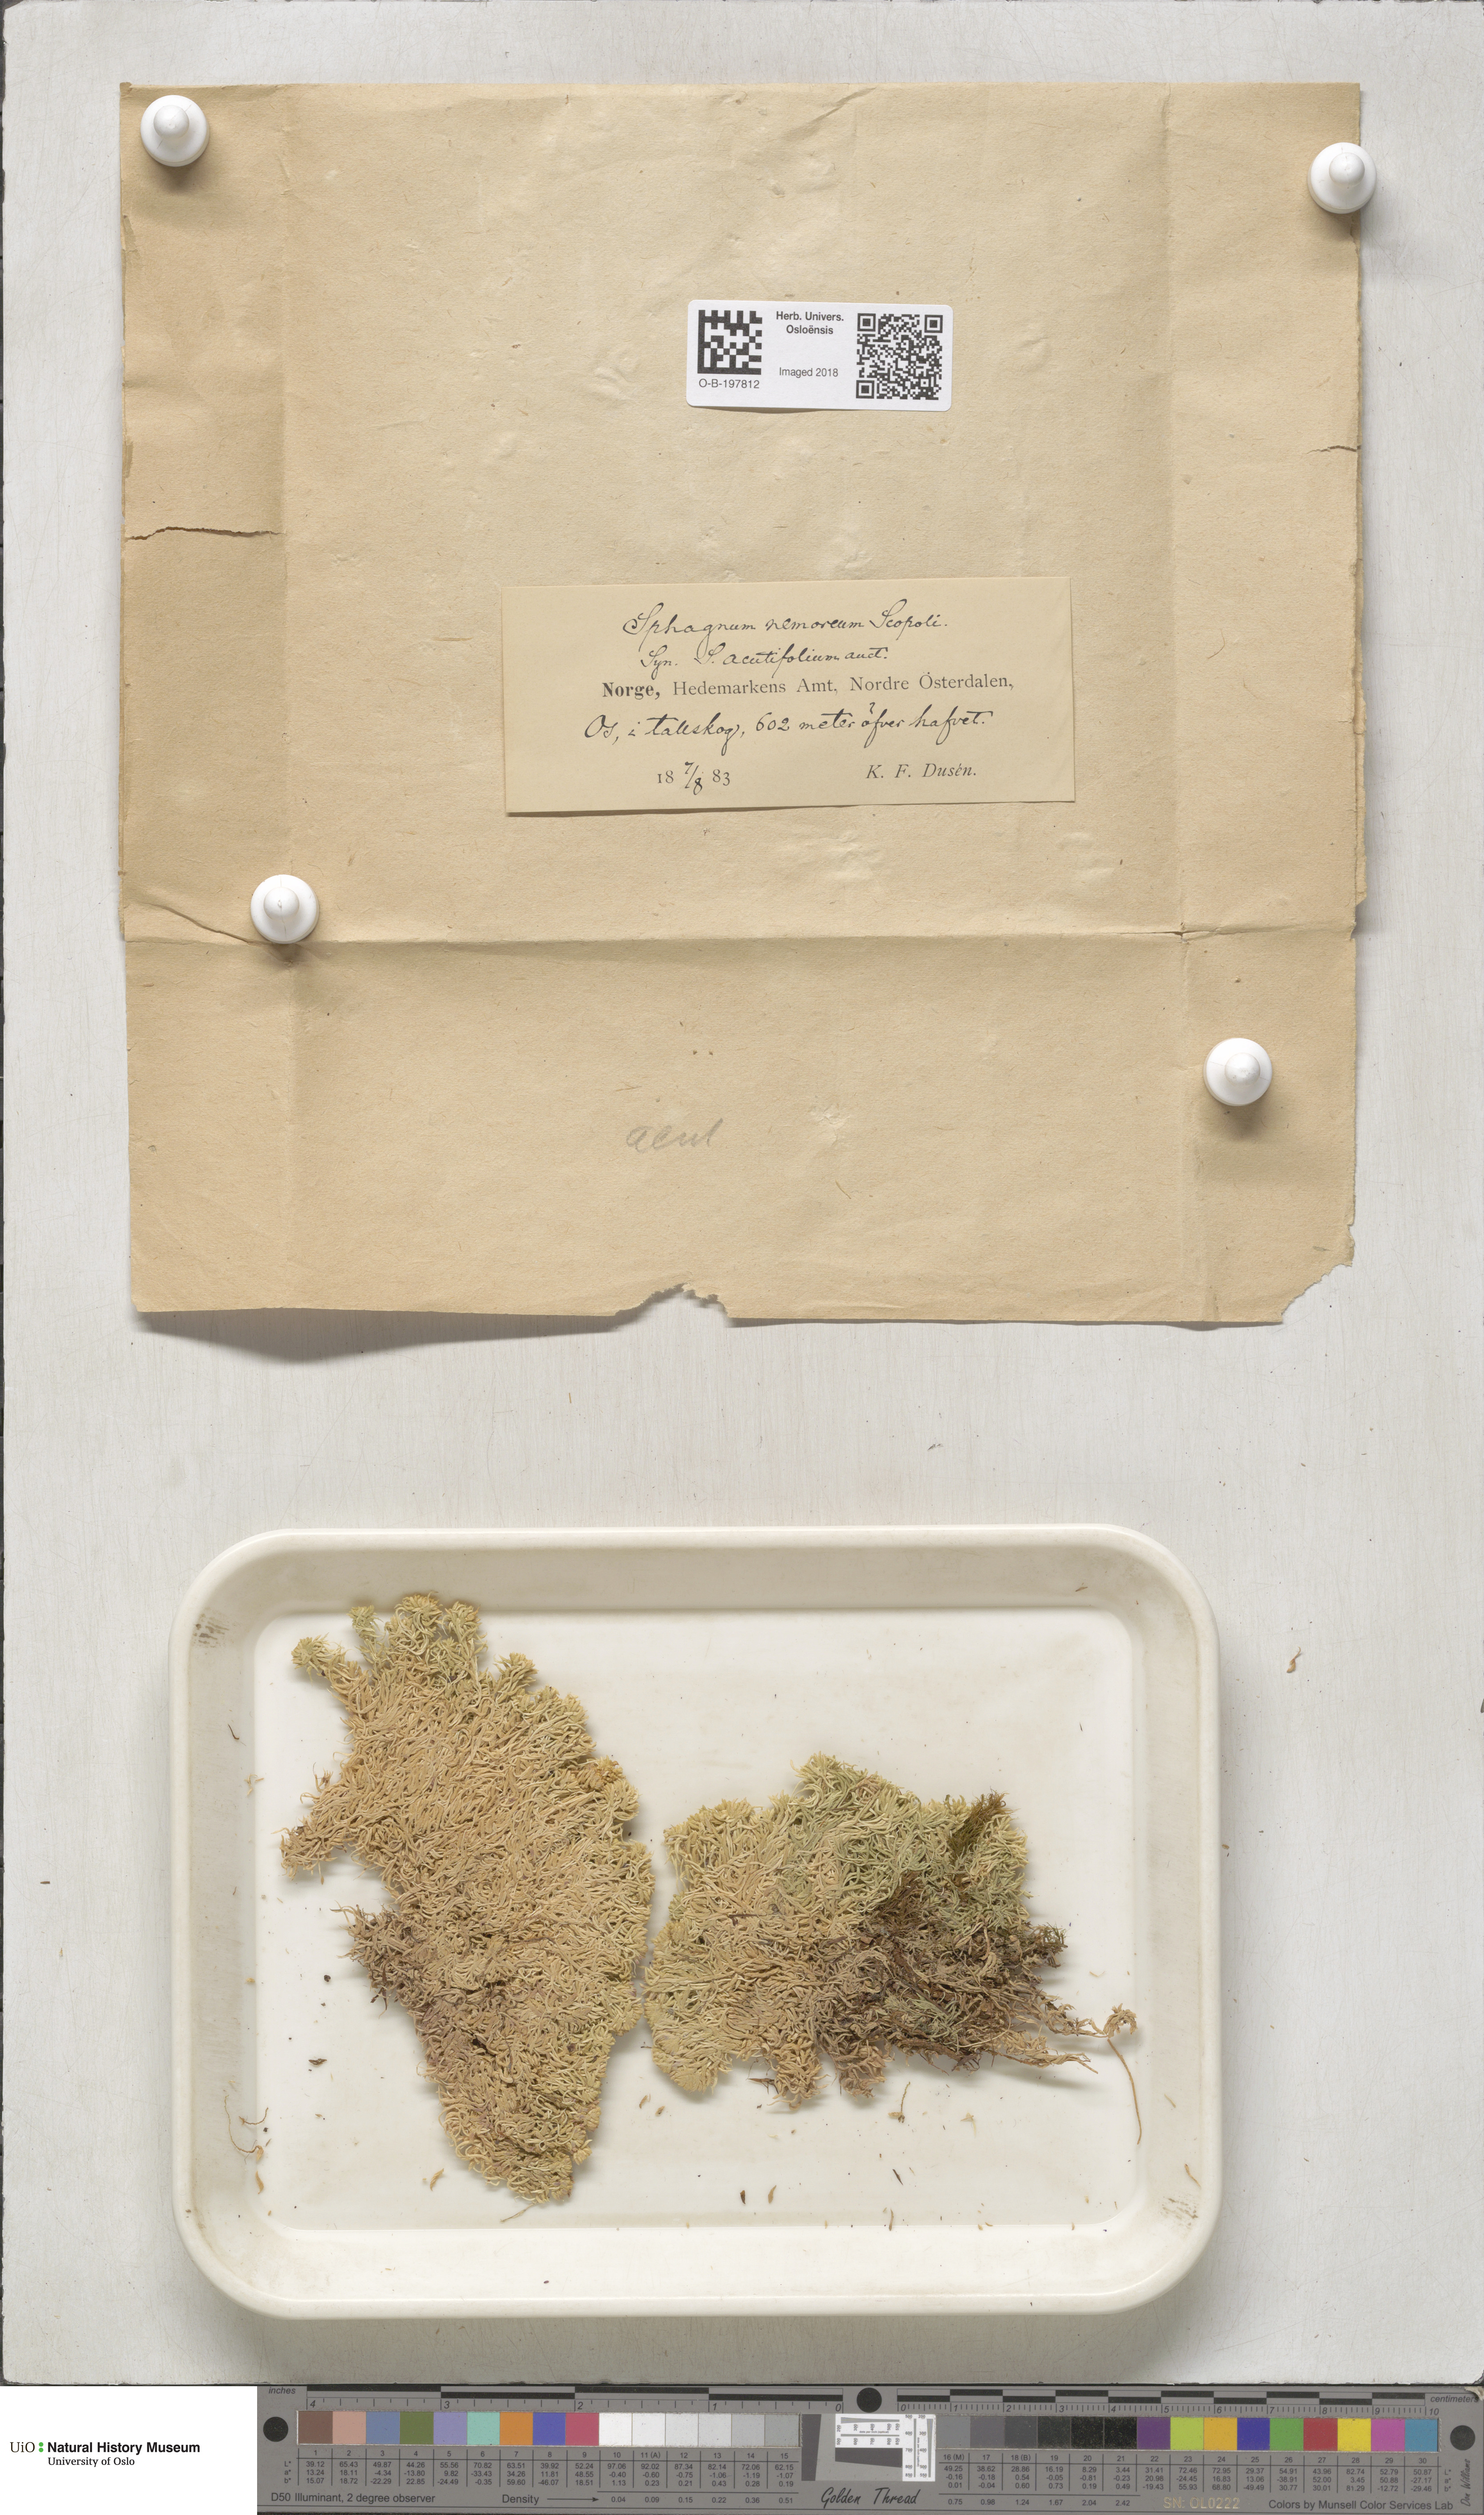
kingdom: Plantae
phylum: Bryophyta
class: Sphagnopsida
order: Sphagnales
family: Sphagnaceae
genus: Sphagnum
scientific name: Sphagnum capillifolium
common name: Small red peat moss
